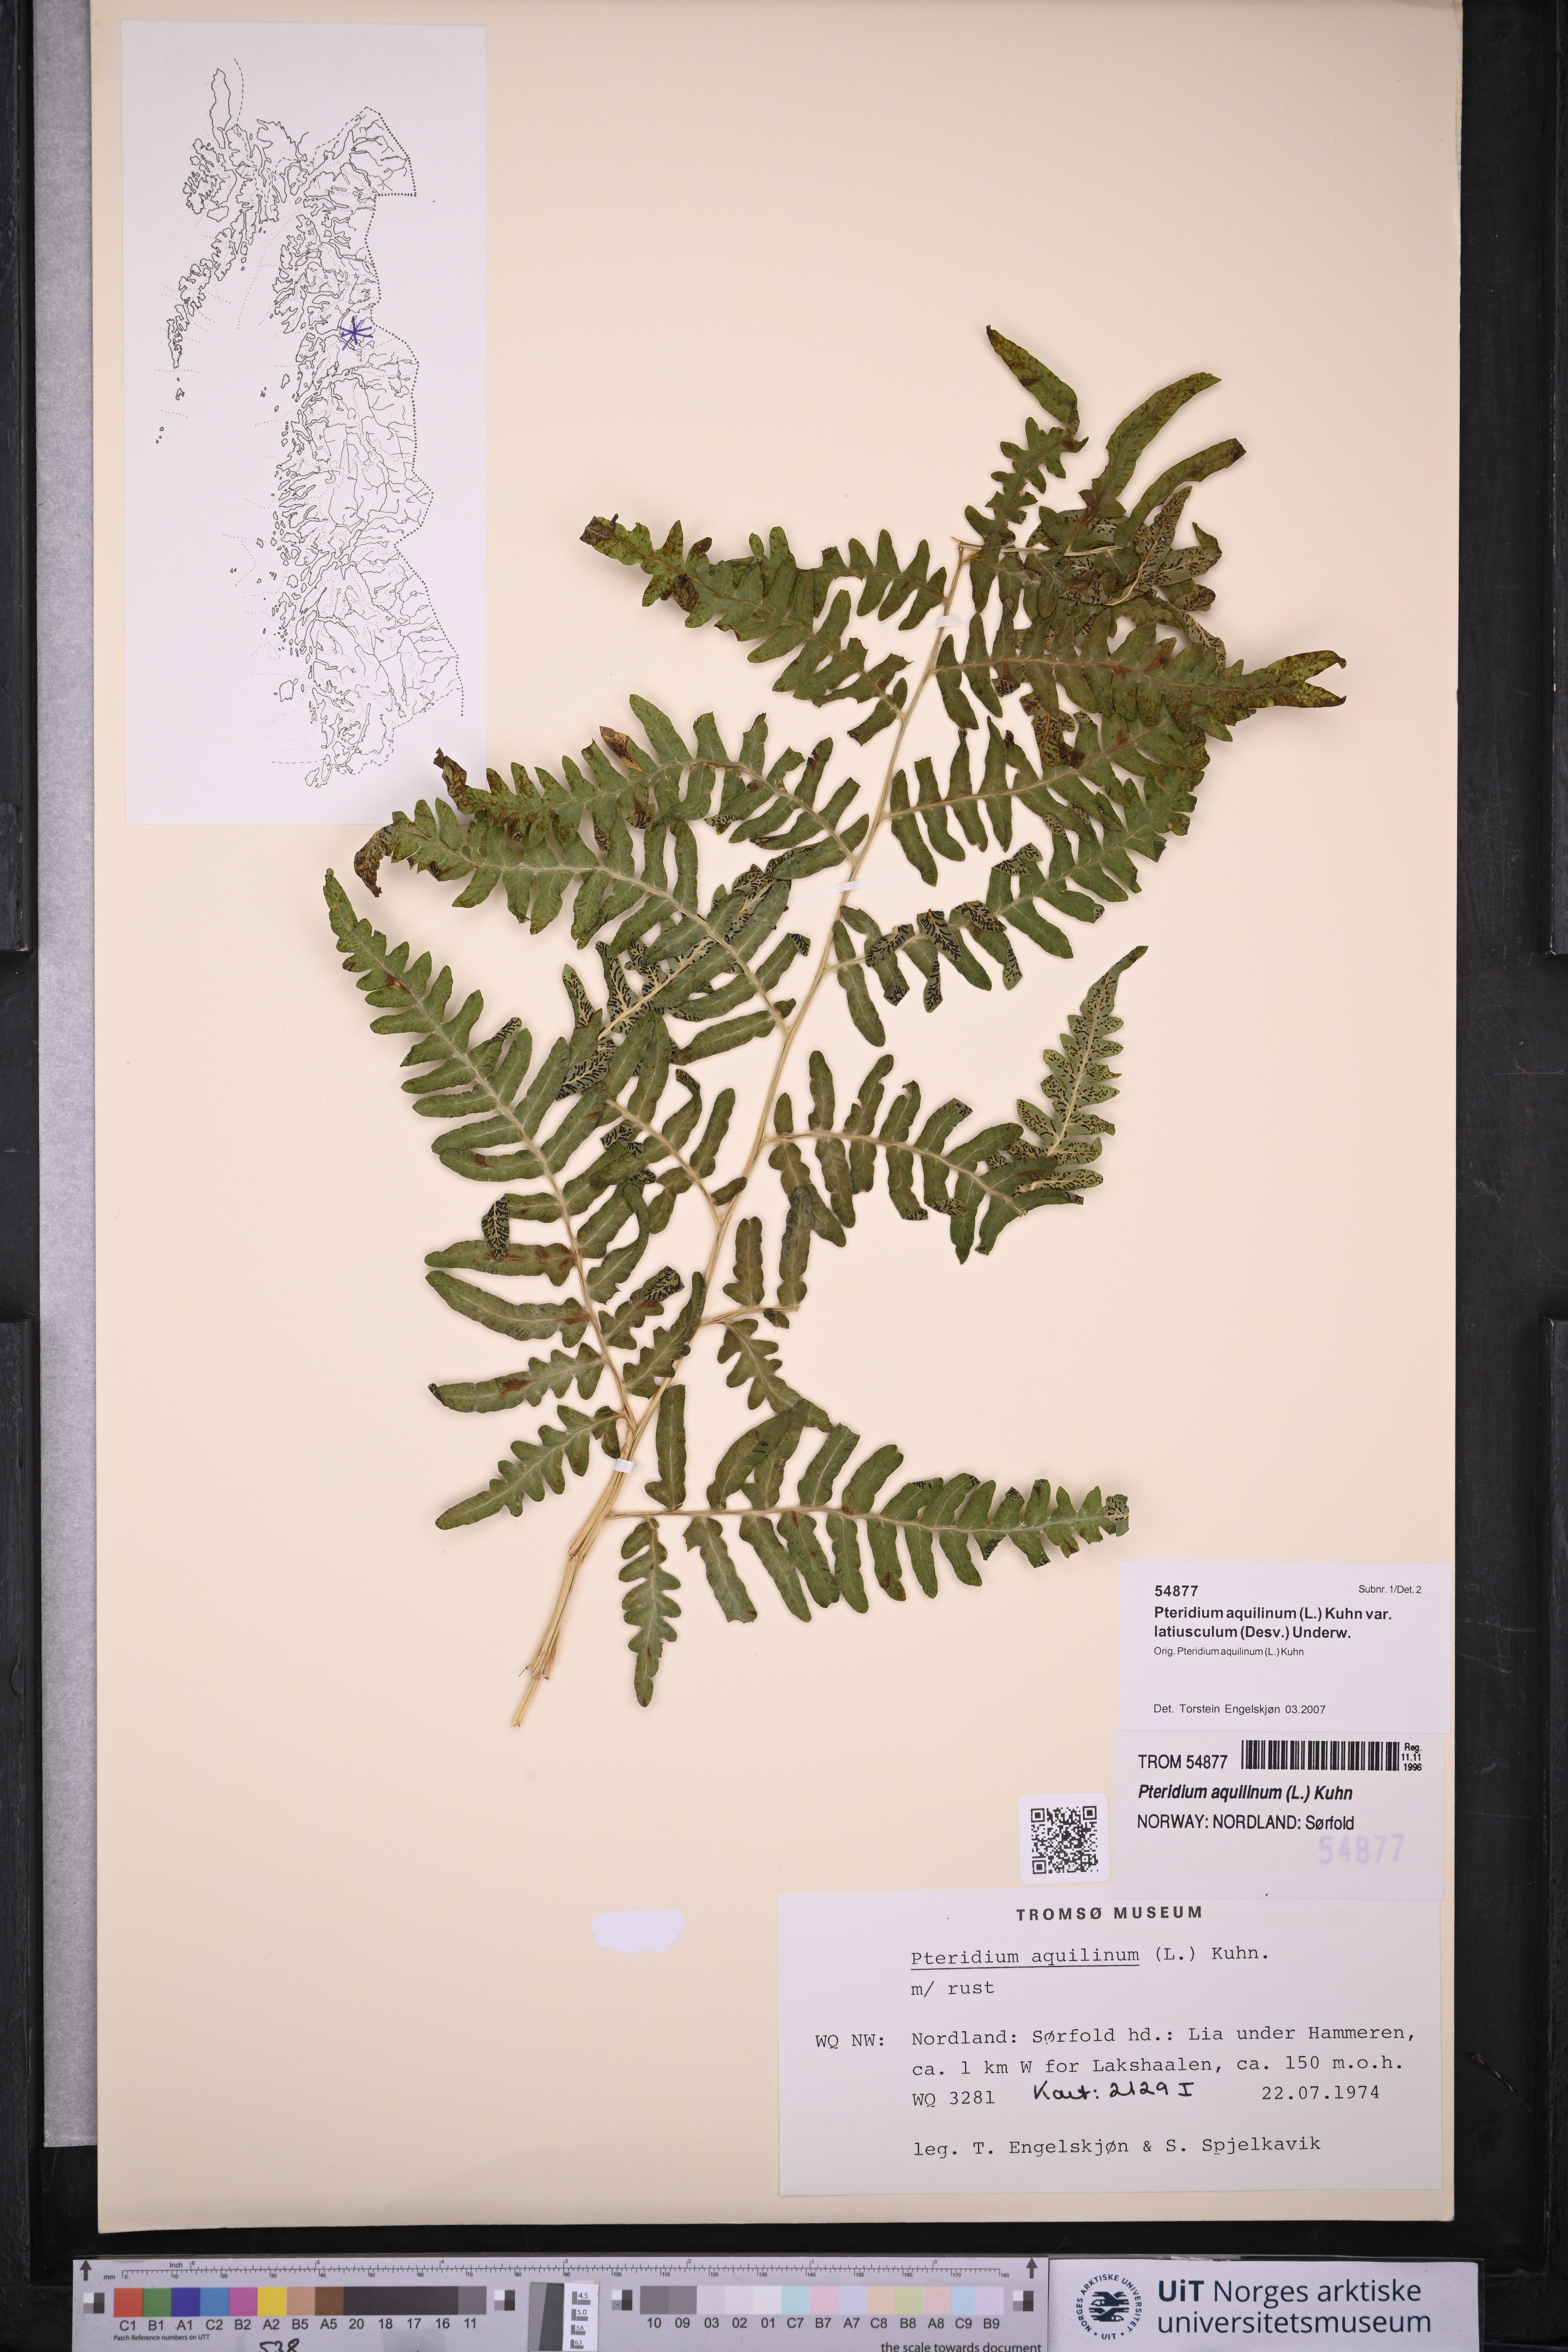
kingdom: Plantae
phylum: Tracheophyta
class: Polypodiopsida
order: Polypodiales
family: Dennstaedtiaceae
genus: Pteridium
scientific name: Pteridium aquilinum
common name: Bracken
